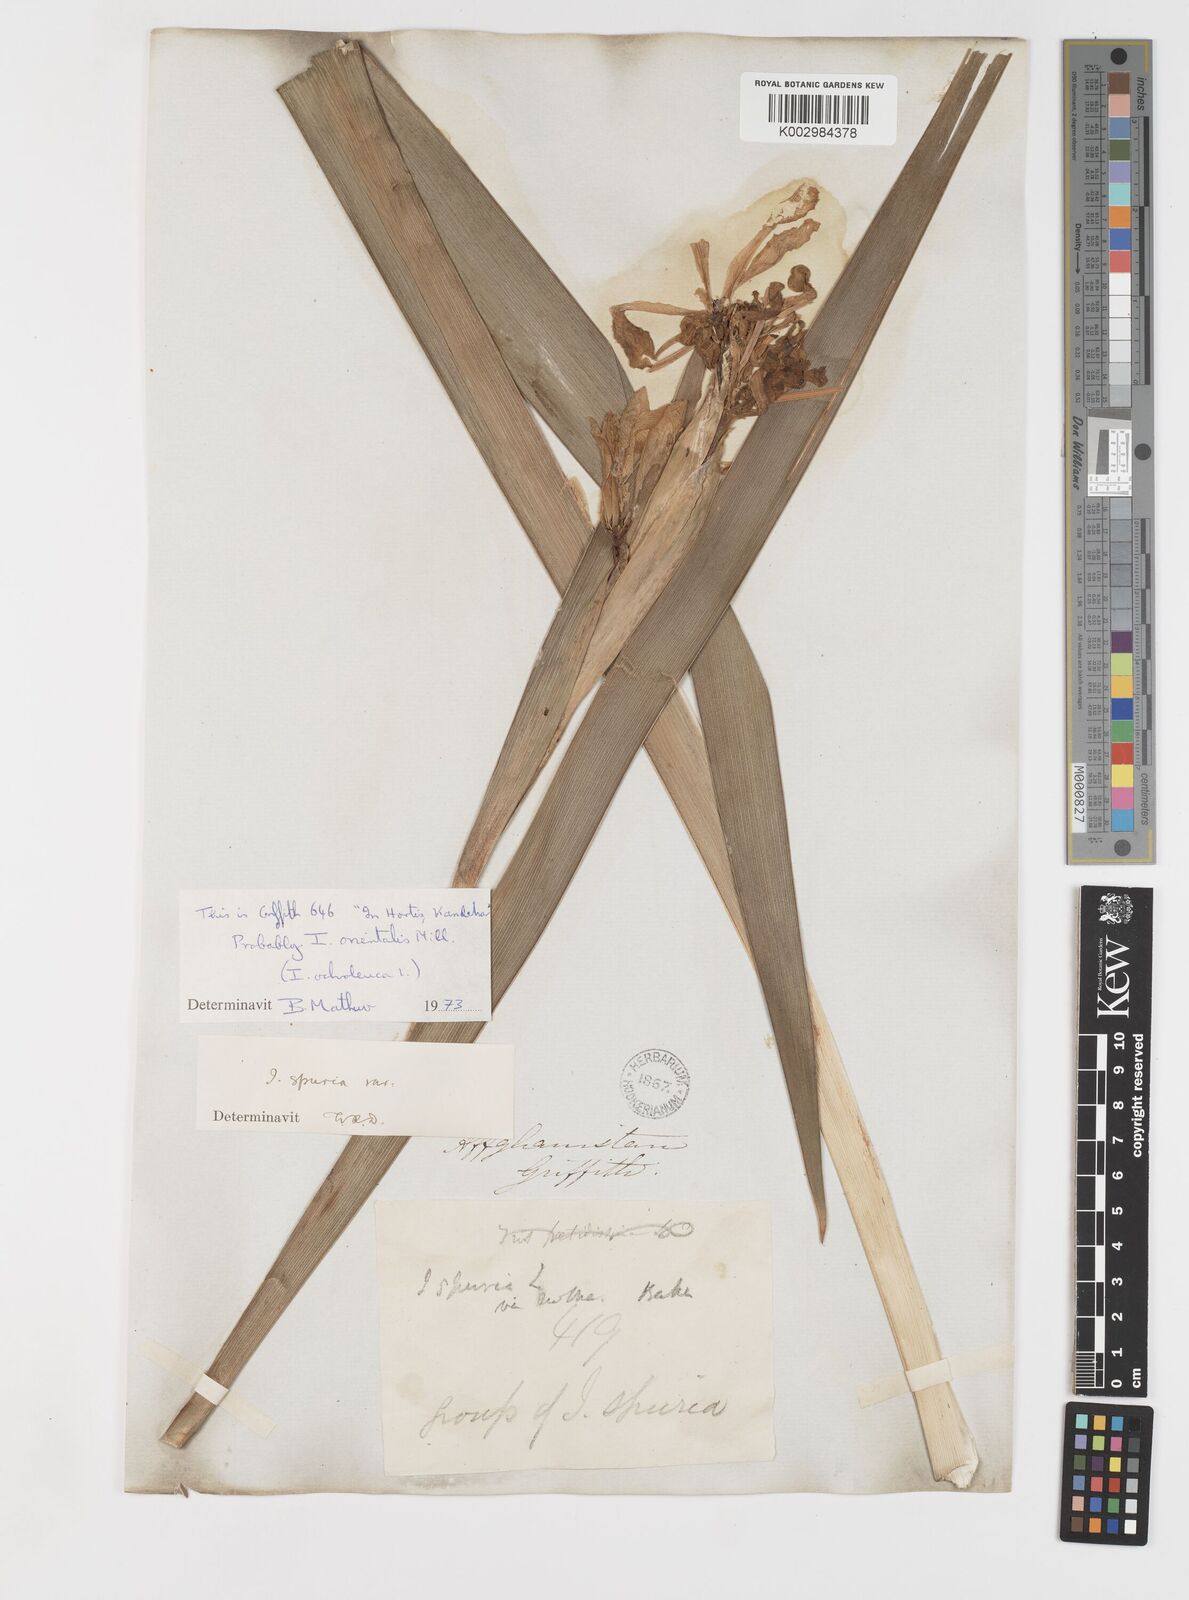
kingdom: Plantae
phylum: Tracheophyta
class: Liliopsida
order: Asparagales
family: Iridaceae
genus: Iris
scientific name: Iris orientalis
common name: Turkish iris
